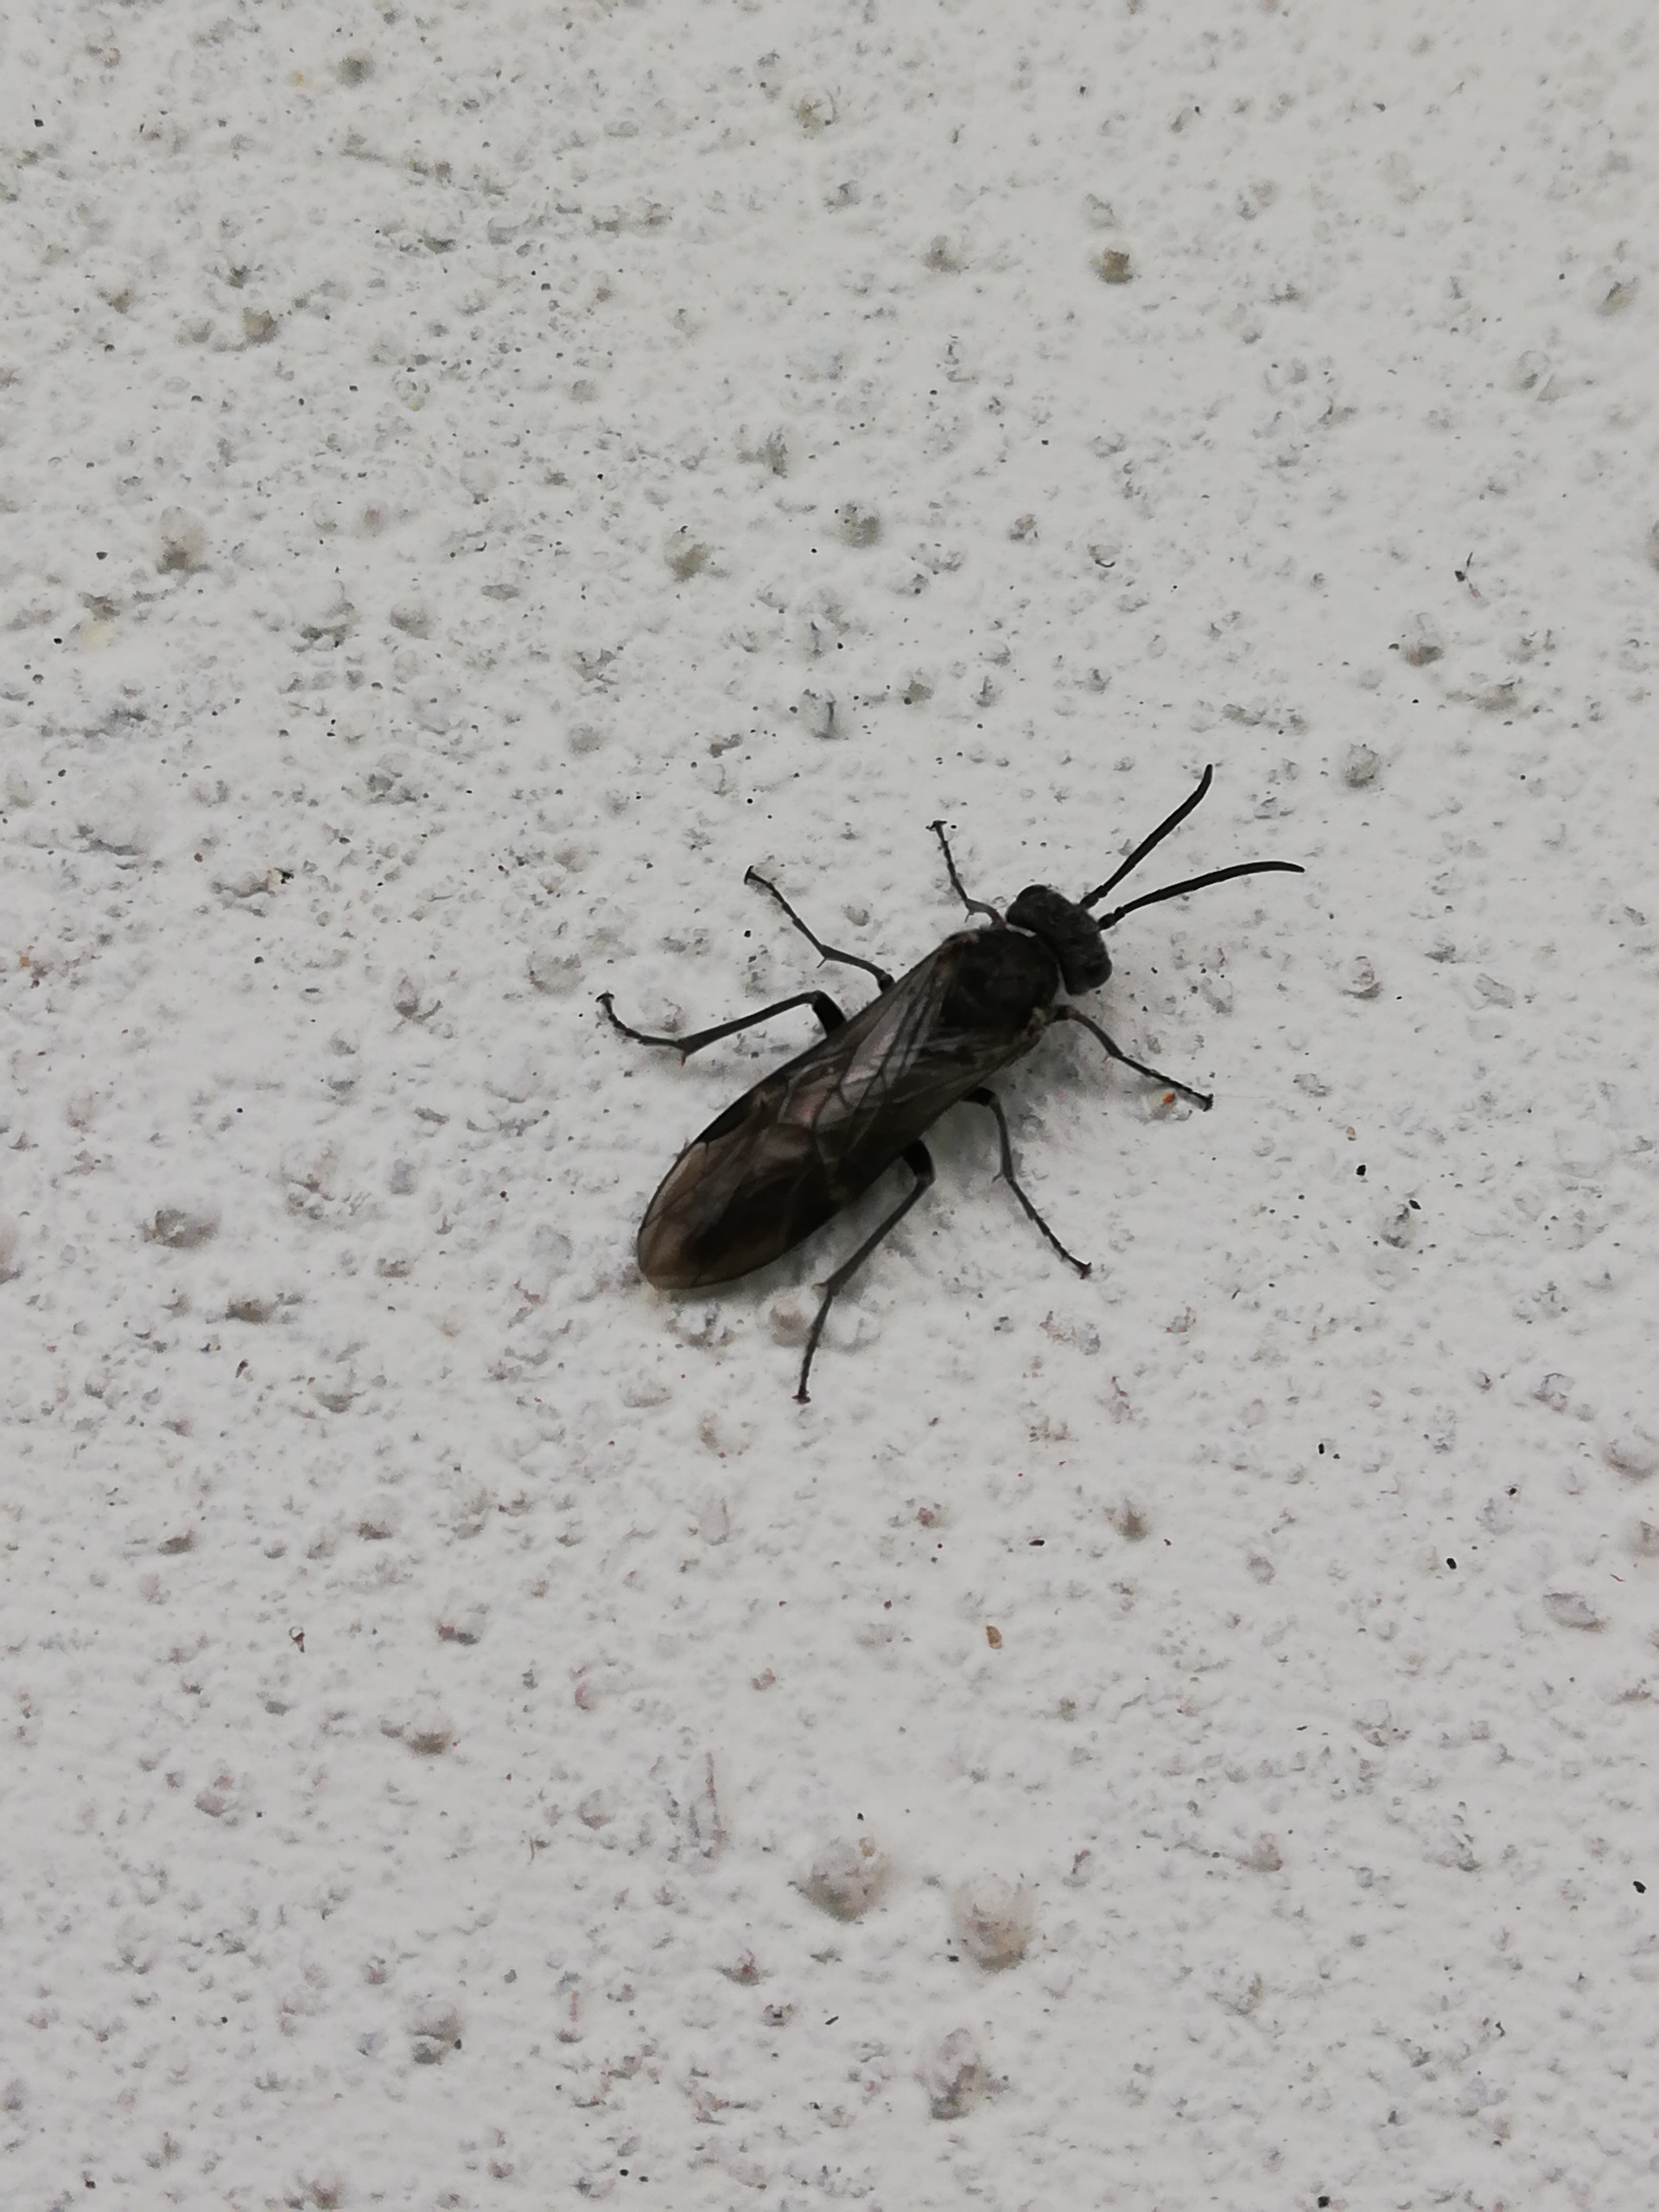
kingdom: Animalia
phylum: Arthropoda
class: Insecta
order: Hymenoptera
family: Tenthredinidae
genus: Dolerus
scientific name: Dolerus
